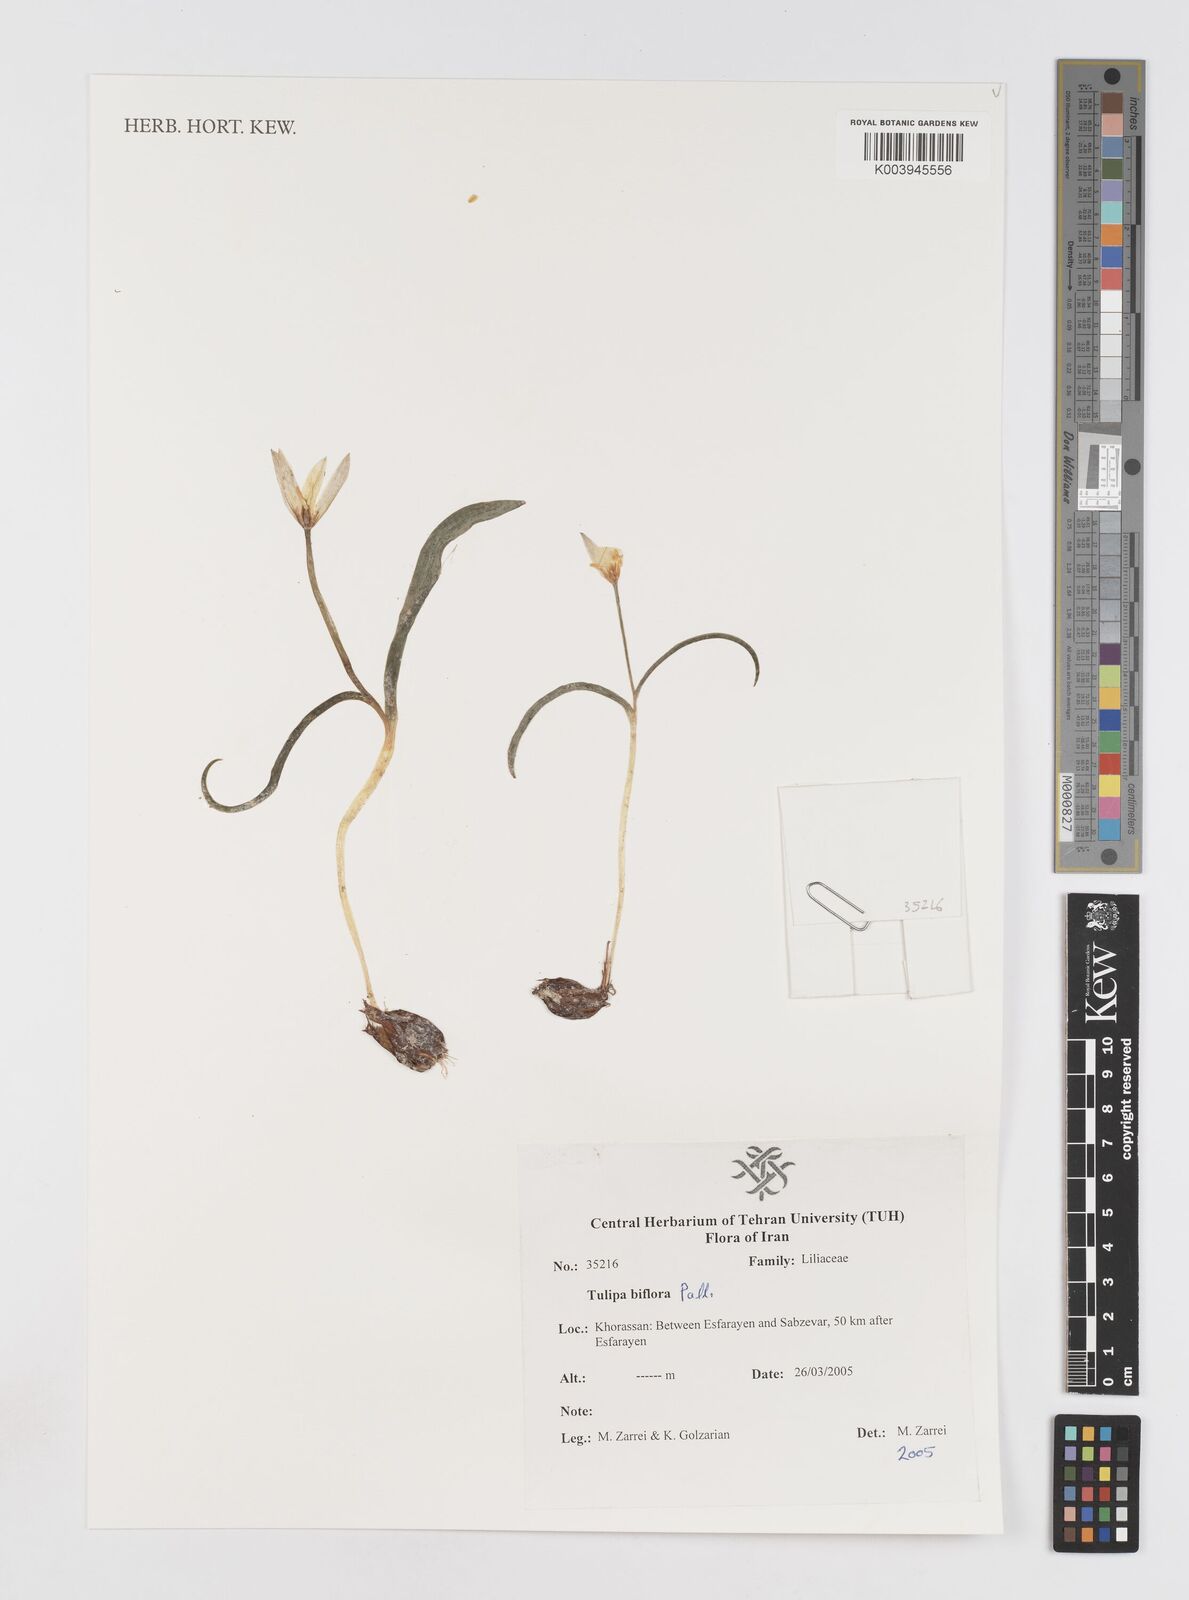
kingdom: Plantae
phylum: Tracheophyta
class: Liliopsida
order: Liliales
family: Liliaceae
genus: Tulipa
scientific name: Tulipa biflora
